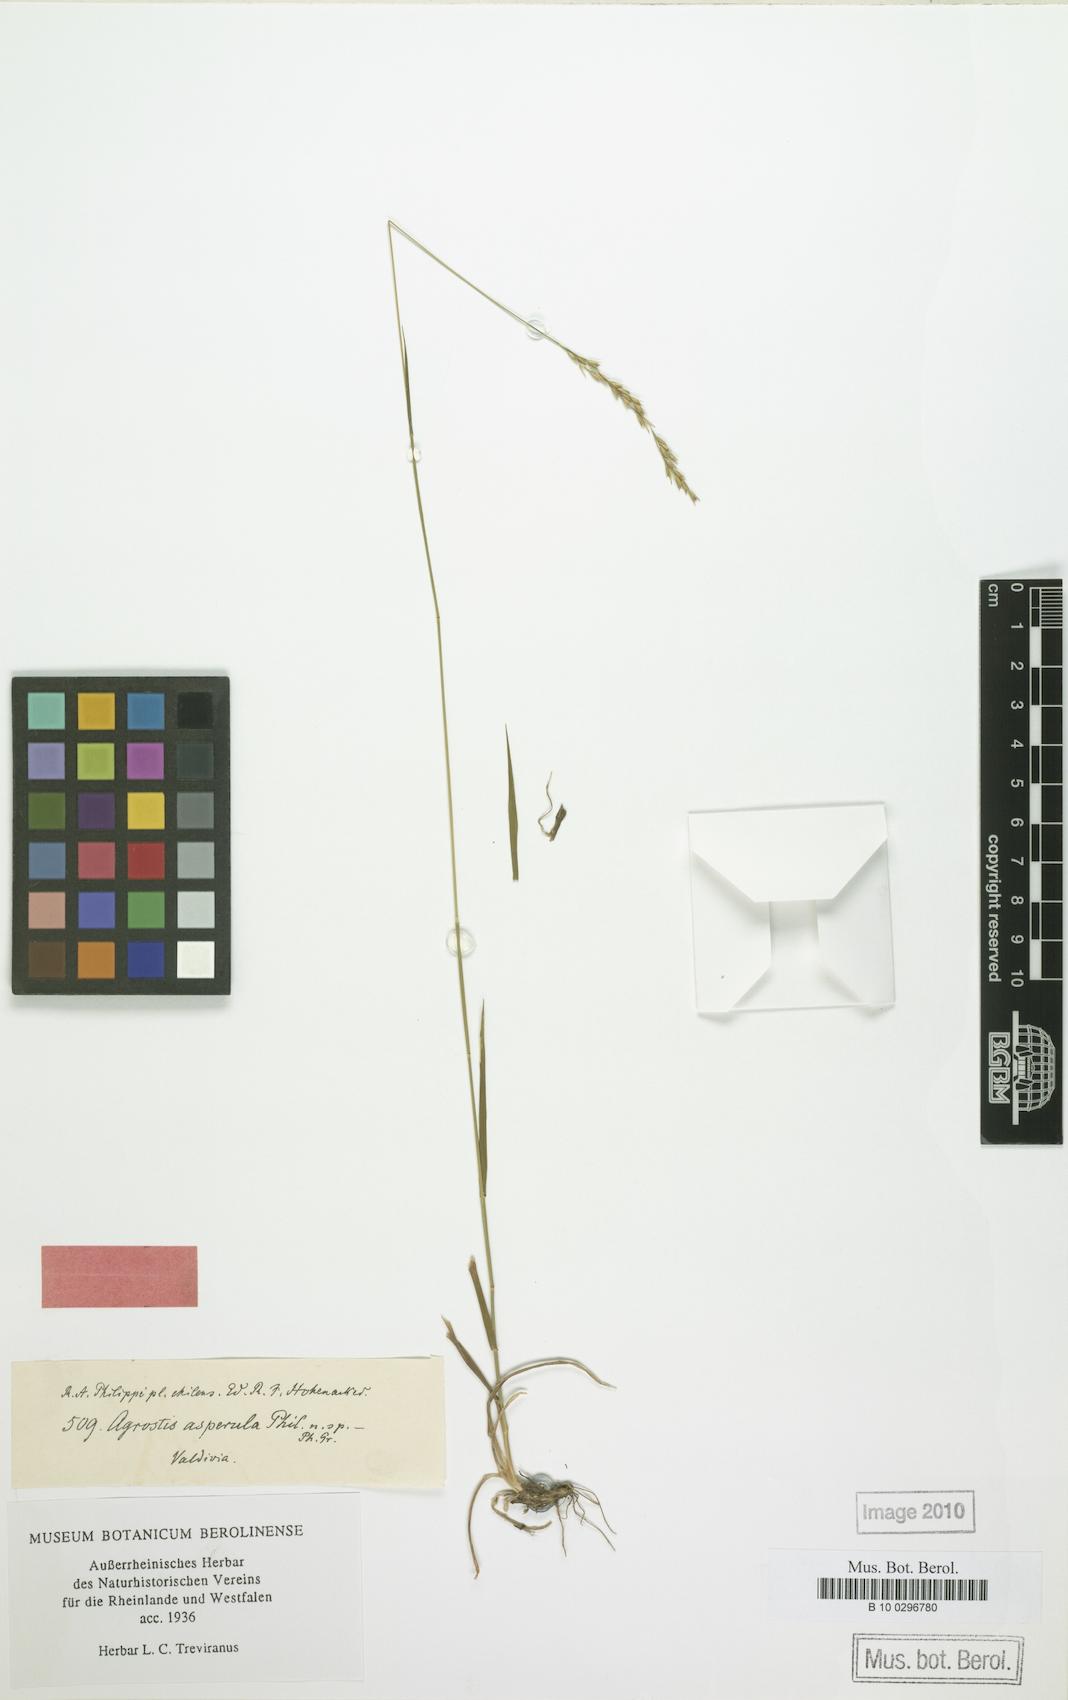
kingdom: Plantae
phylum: Tracheophyta
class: Liliopsida
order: Poales
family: Poaceae
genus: Relchela
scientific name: Relchela panicoides
